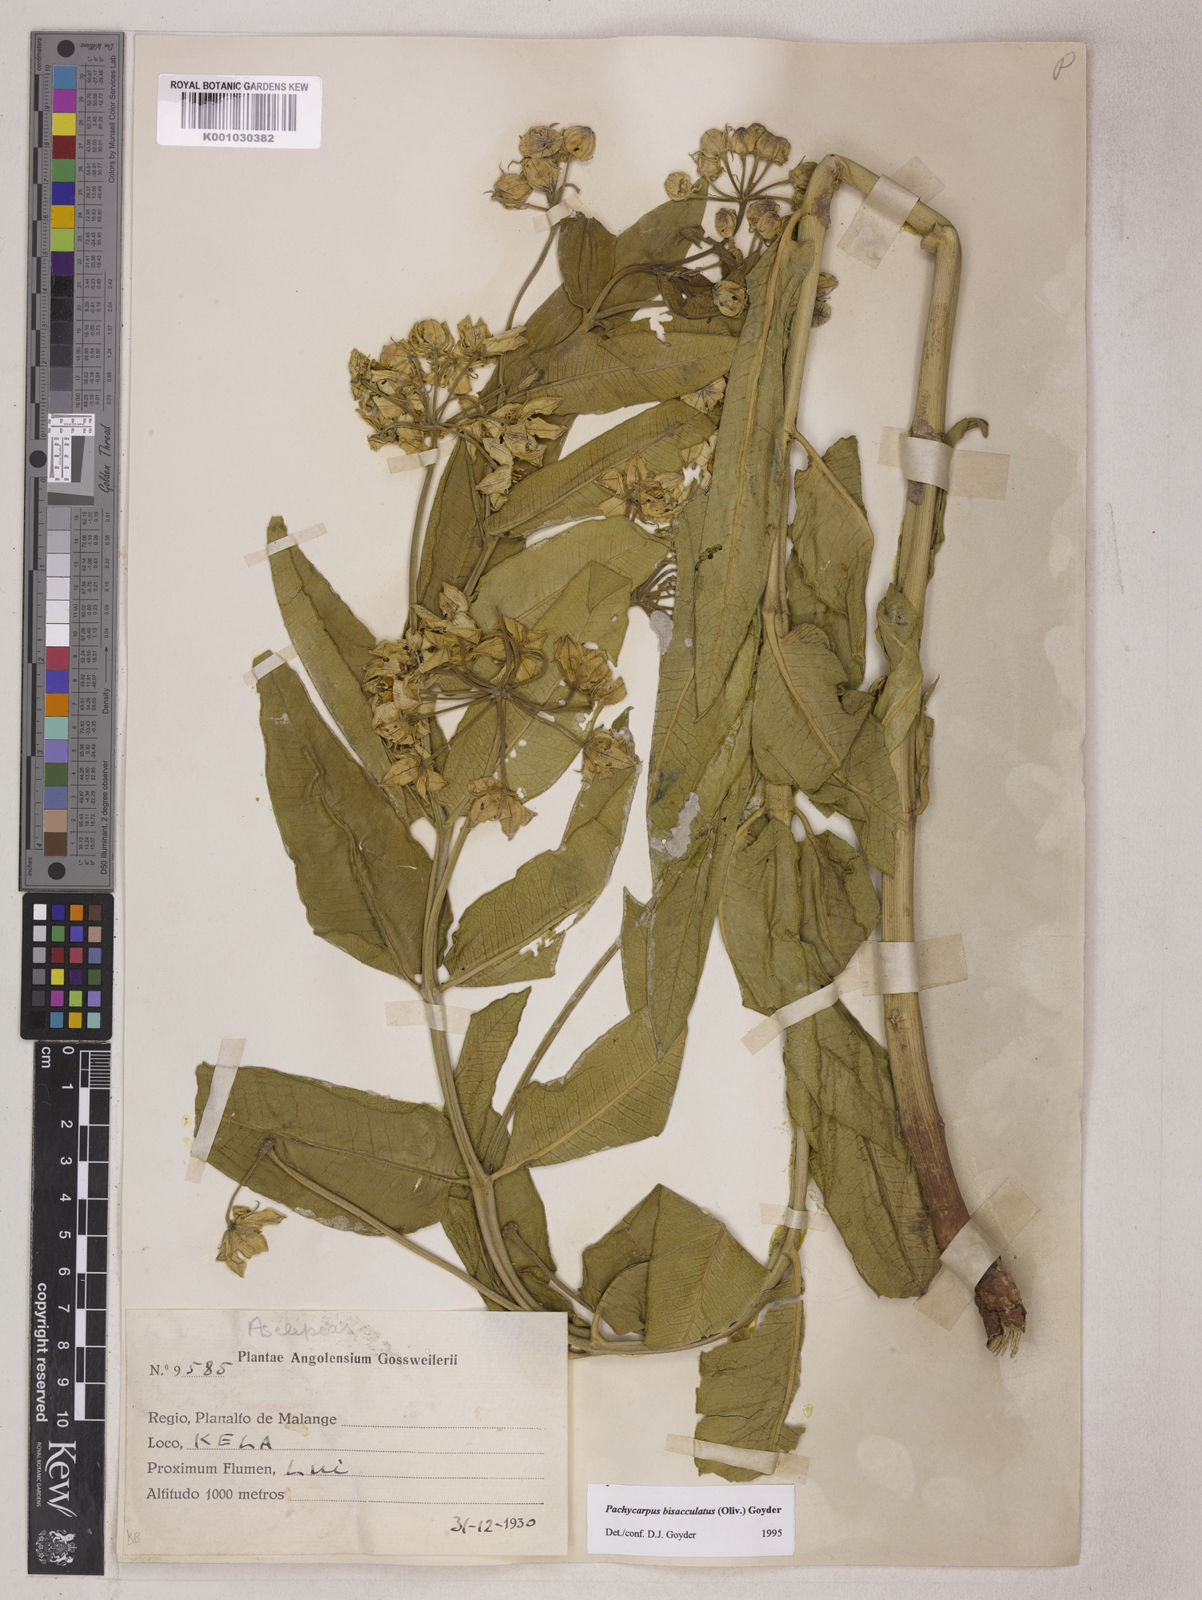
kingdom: Plantae
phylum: Tracheophyta
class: Magnoliopsida
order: Gentianales
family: Apocynaceae
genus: Pachycarpus
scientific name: Pachycarpus bisacculatus
